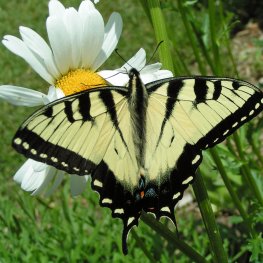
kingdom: Animalia
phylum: Arthropoda
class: Insecta
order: Lepidoptera
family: Papilionidae
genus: Pterourus
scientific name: Pterourus glaucus
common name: Eastern Tiger Swallowtail
